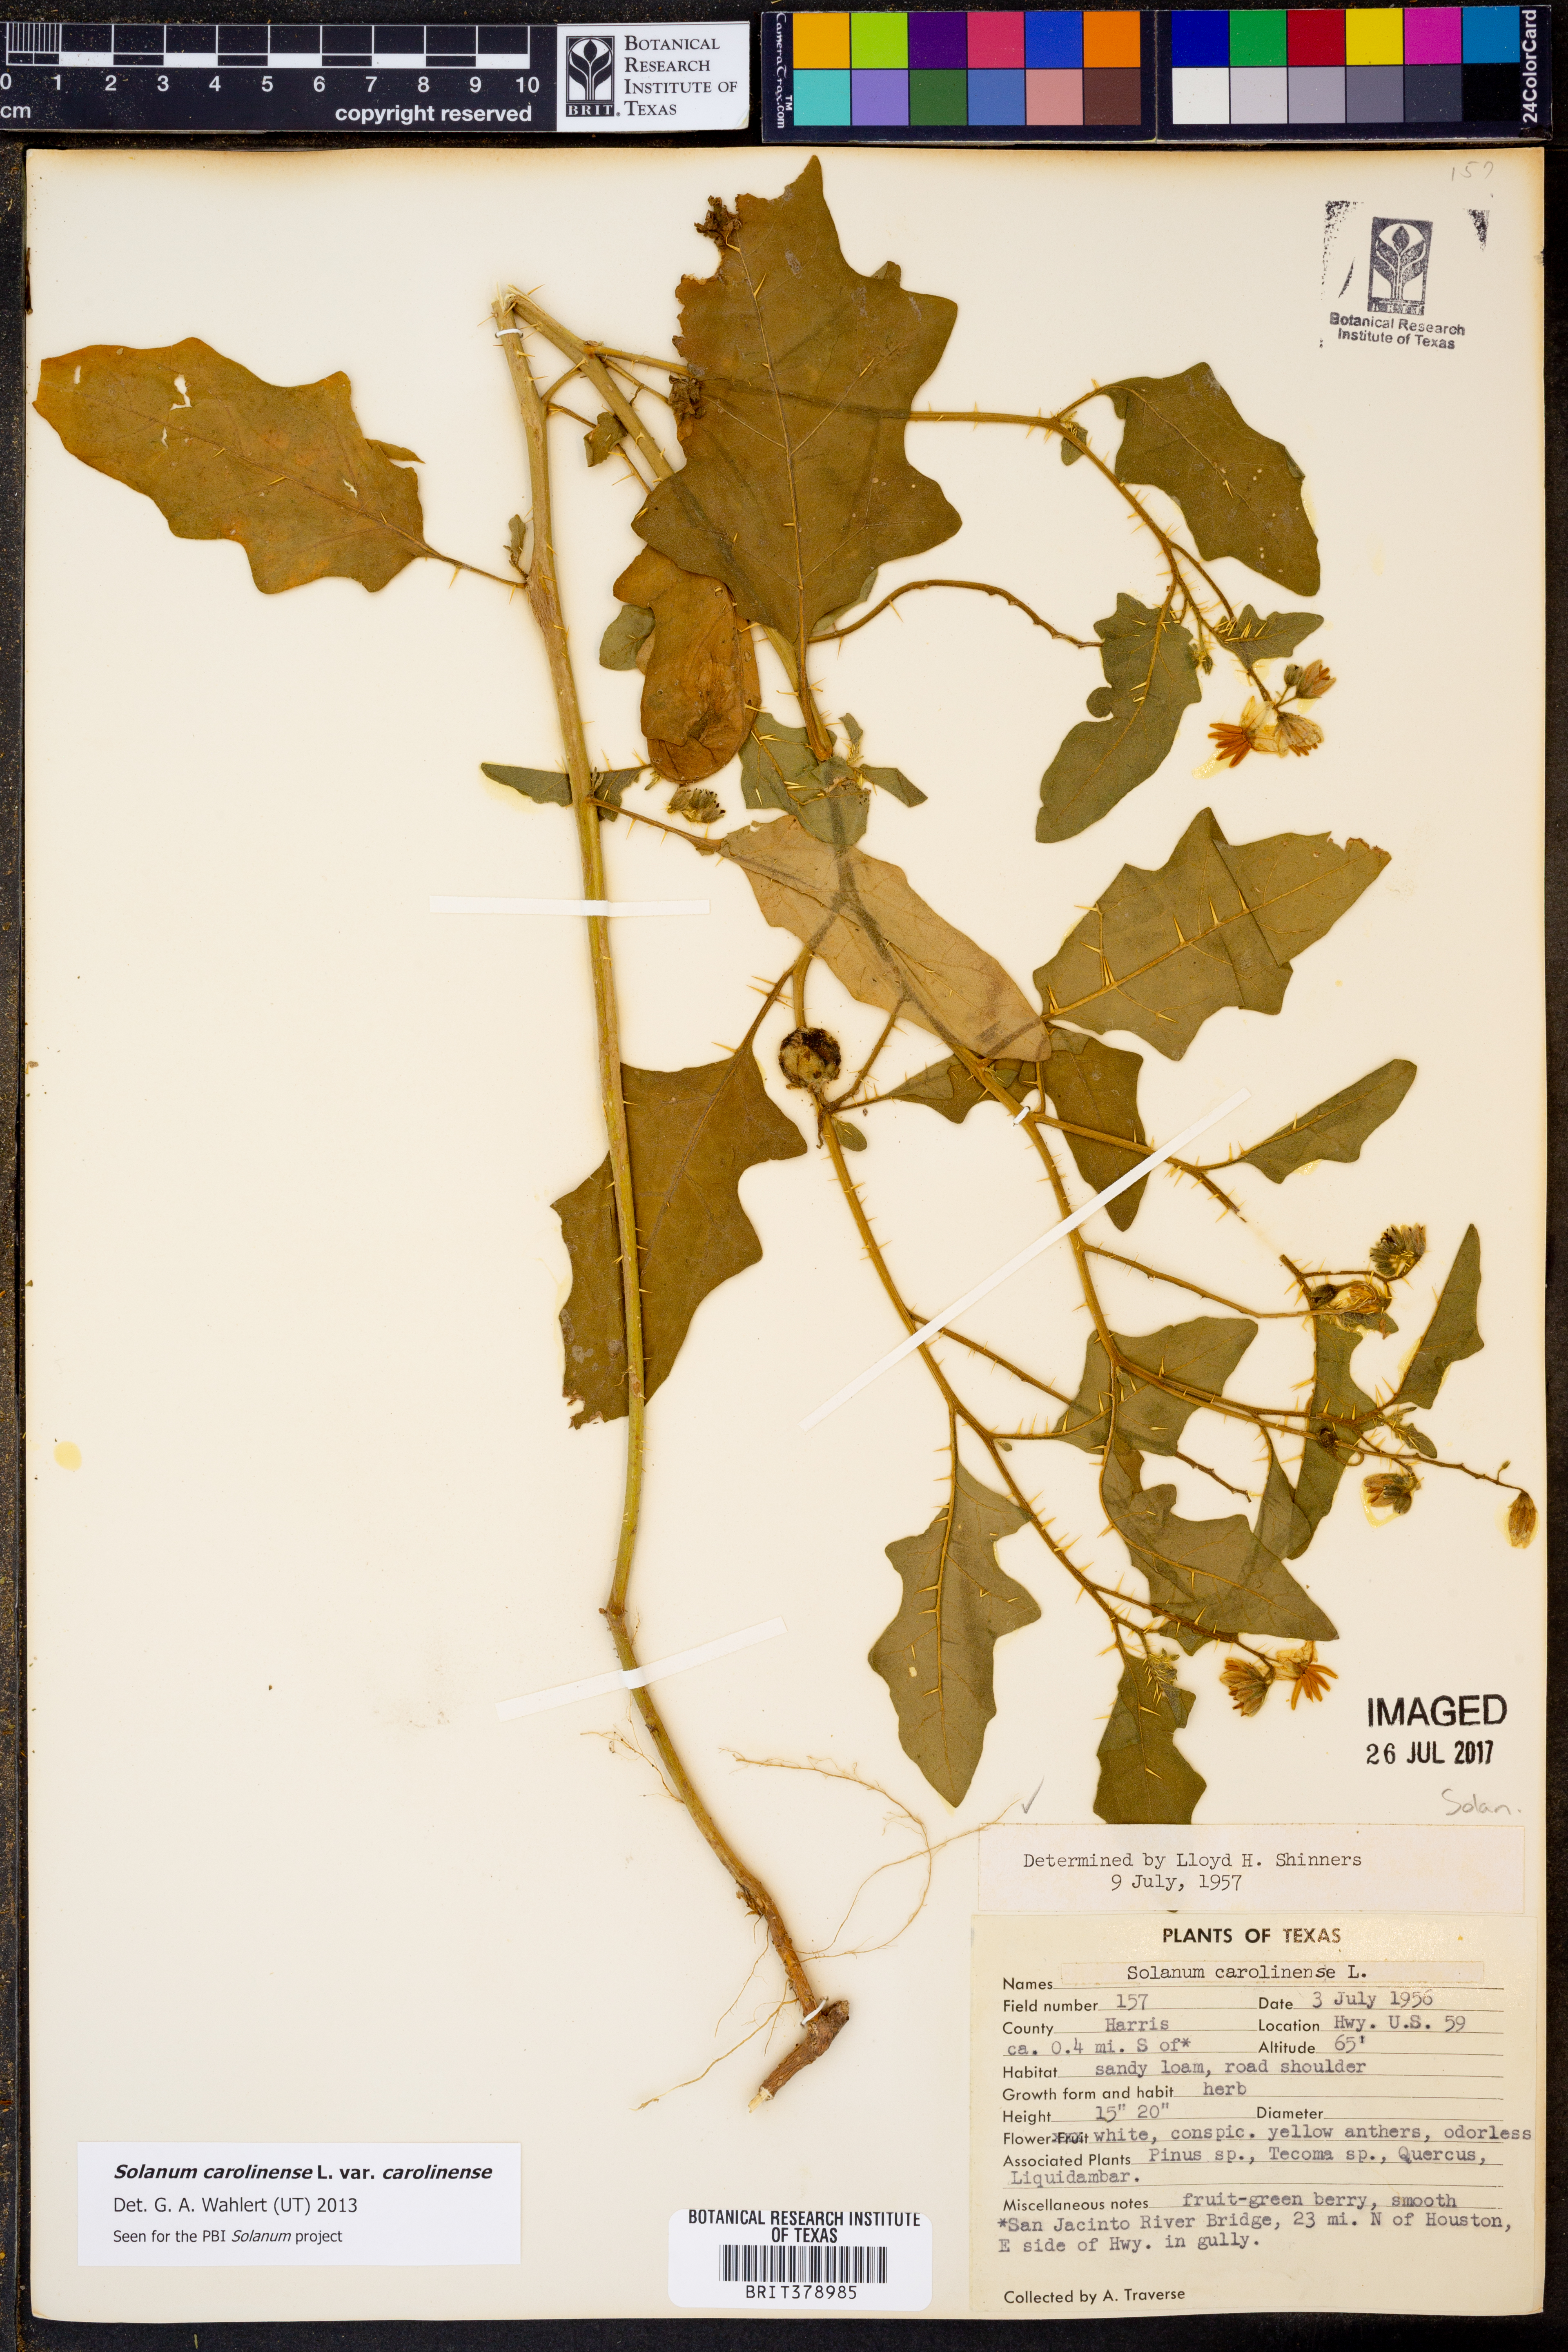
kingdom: Plantae
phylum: Tracheophyta
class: Magnoliopsida
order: Solanales
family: Solanaceae
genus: Solanum
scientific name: Solanum carolinense
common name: Horse-nettle
